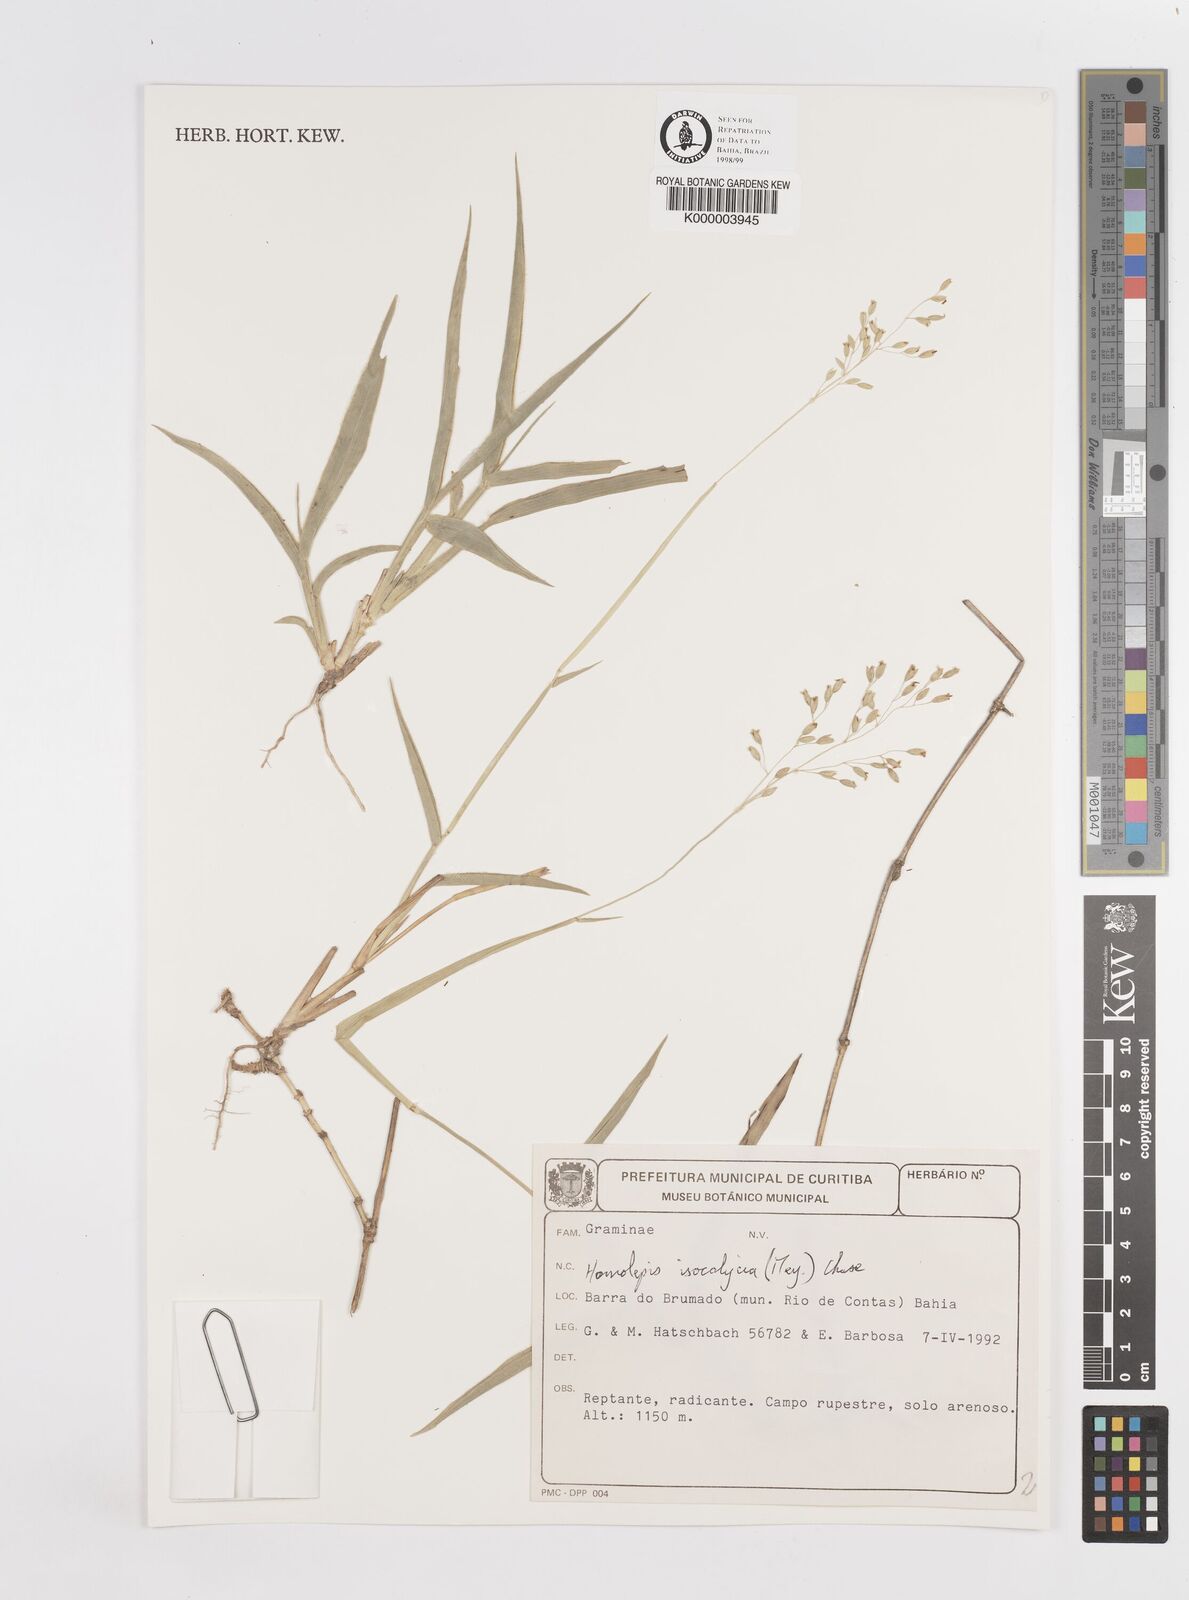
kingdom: Plantae
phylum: Tracheophyta
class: Liliopsida
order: Poales
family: Poaceae
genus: Homolepis
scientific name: Homolepis
